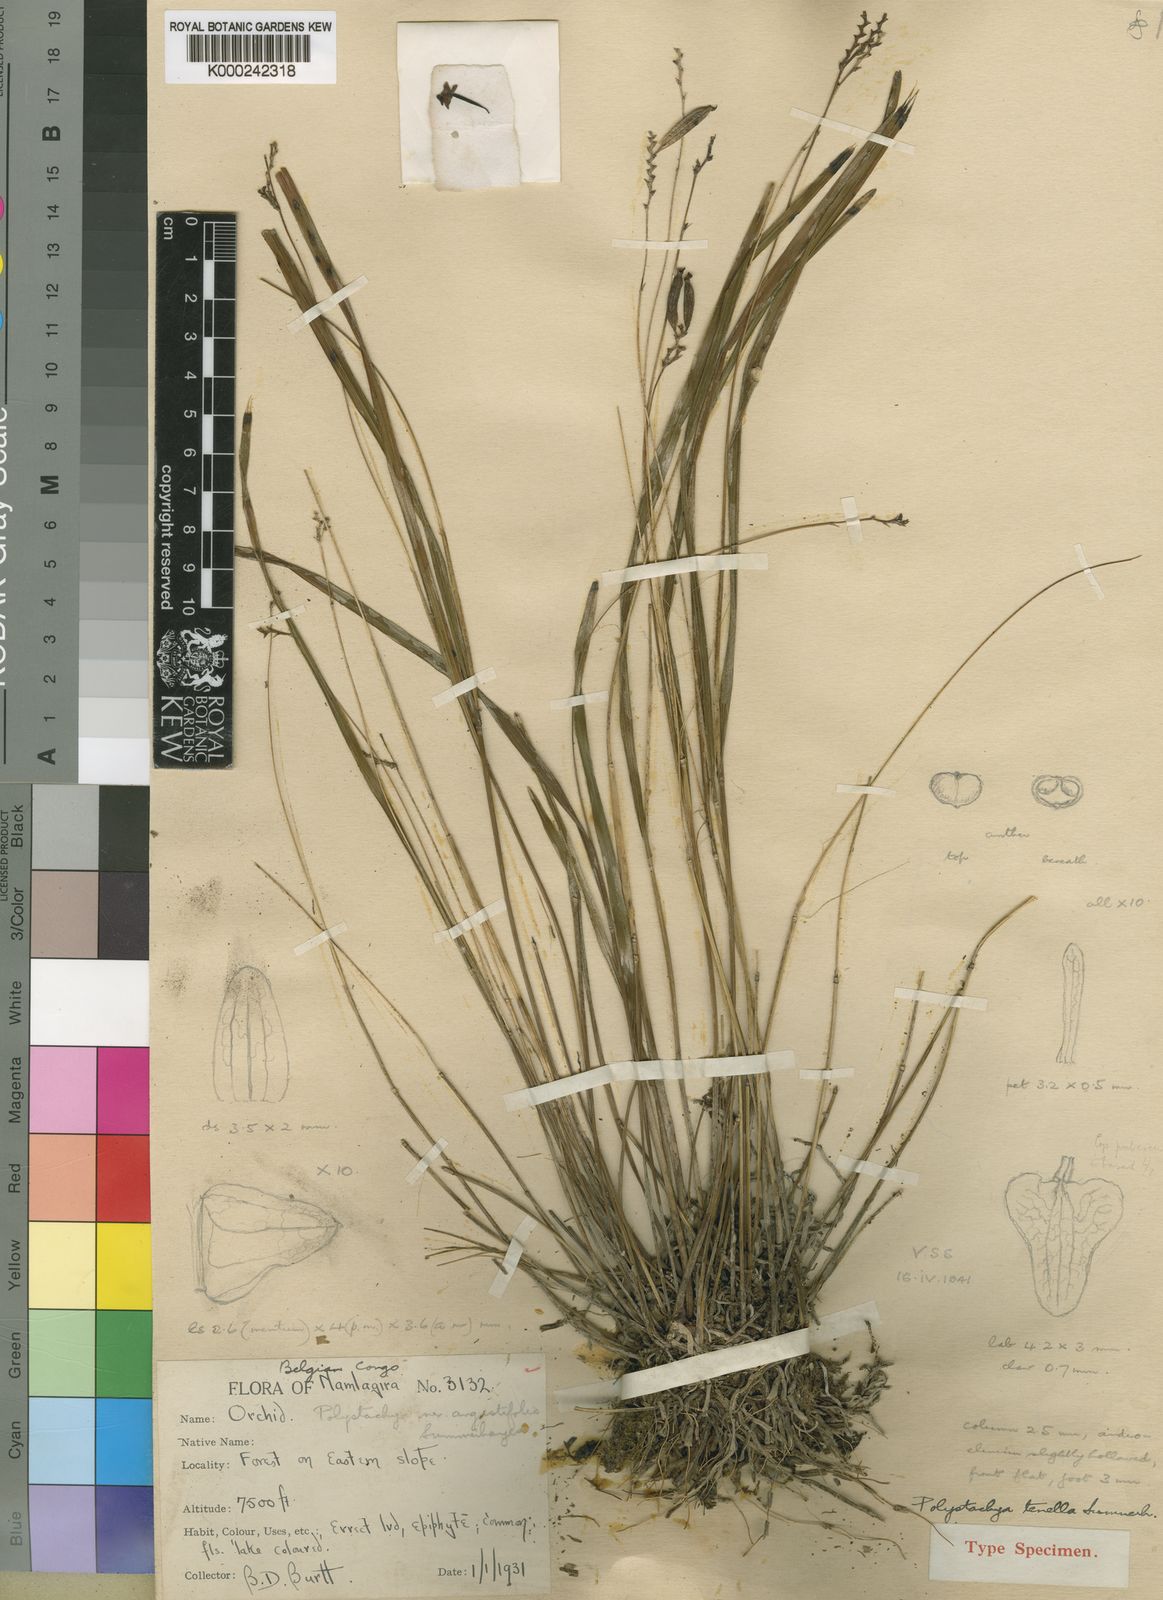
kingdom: Plantae
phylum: Tracheophyta
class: Liliopsida
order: Asparagales
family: Orchidaceae
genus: Polystachya
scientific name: Polystachya tenella
